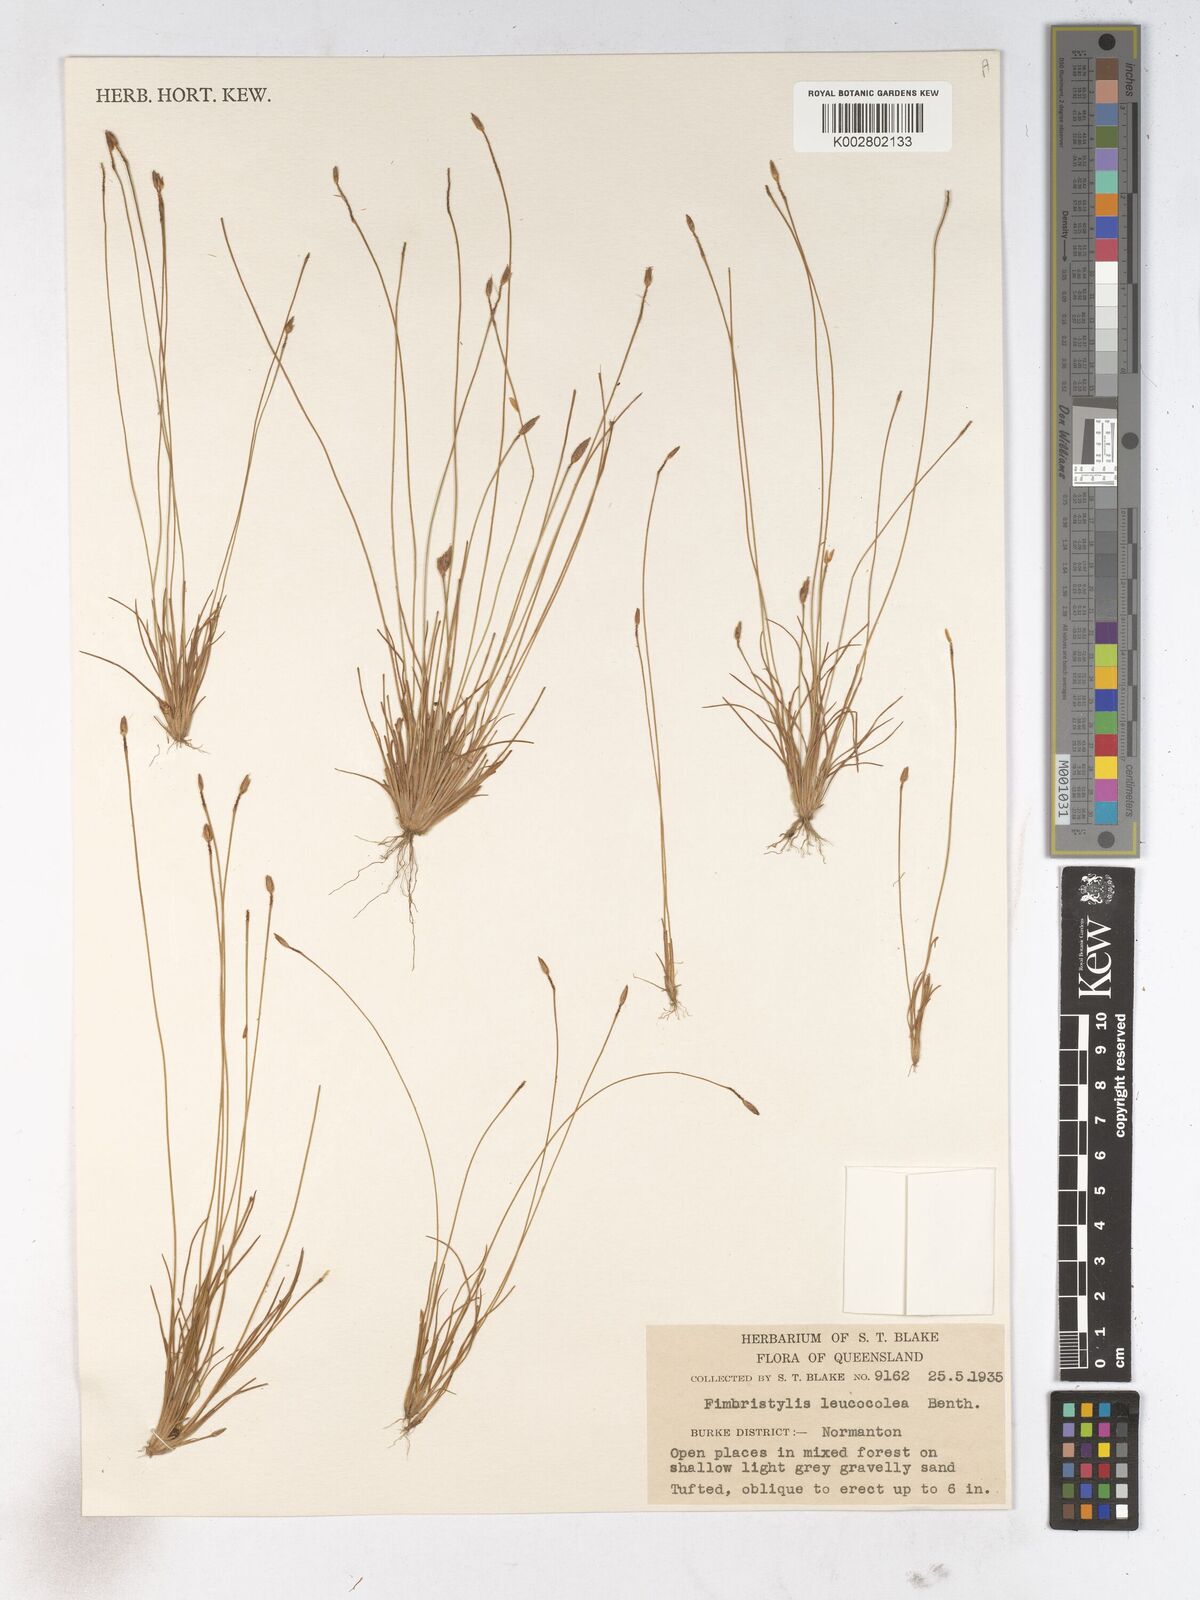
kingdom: Plantae
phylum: Tracheophyta
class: Liliopsida
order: Poales
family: Cyperaceae
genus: Fimbristylis
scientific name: Fimbristylis leucocolea
